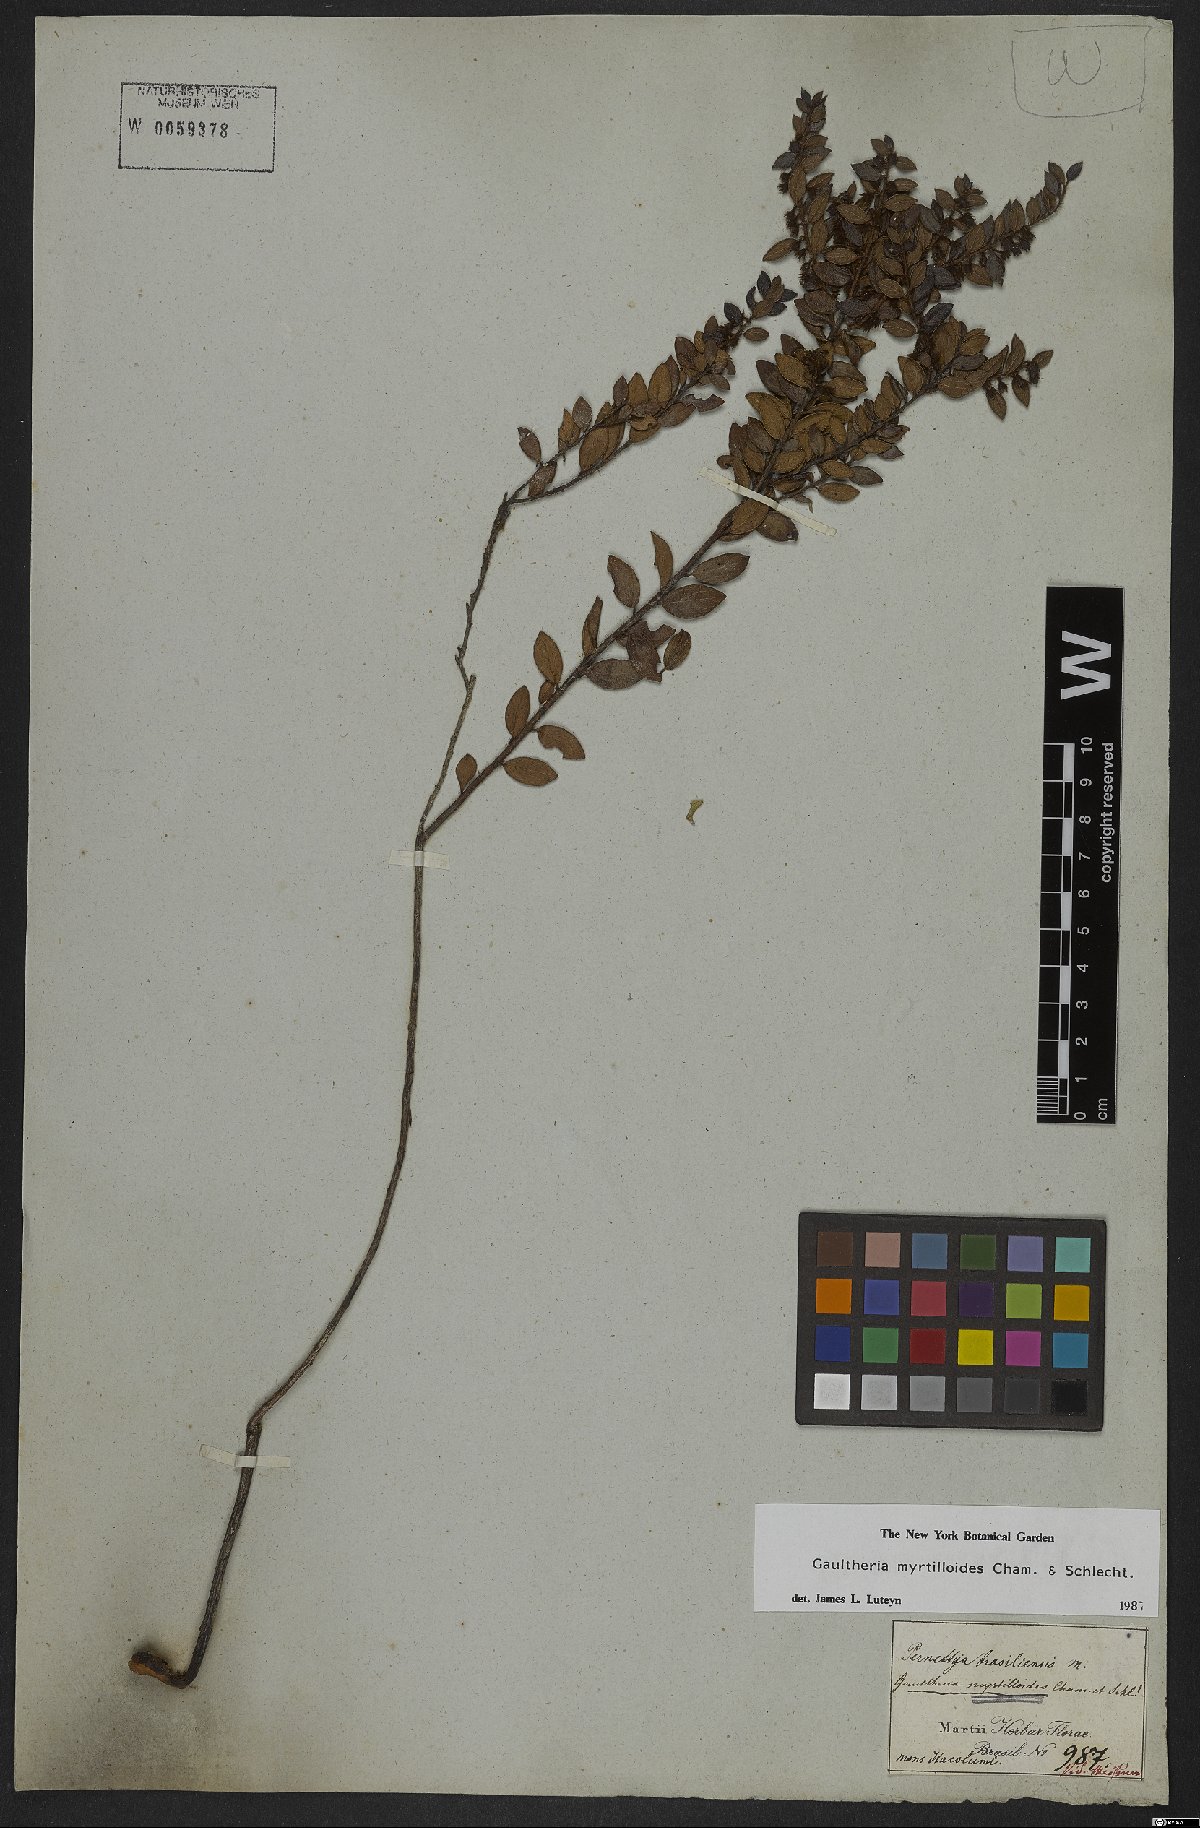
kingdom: Plantae
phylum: Tracheophyta
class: Magnoliopsida
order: Ericales
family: Ericaceae
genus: Gaultheria
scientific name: Gaultheria poeppigii
